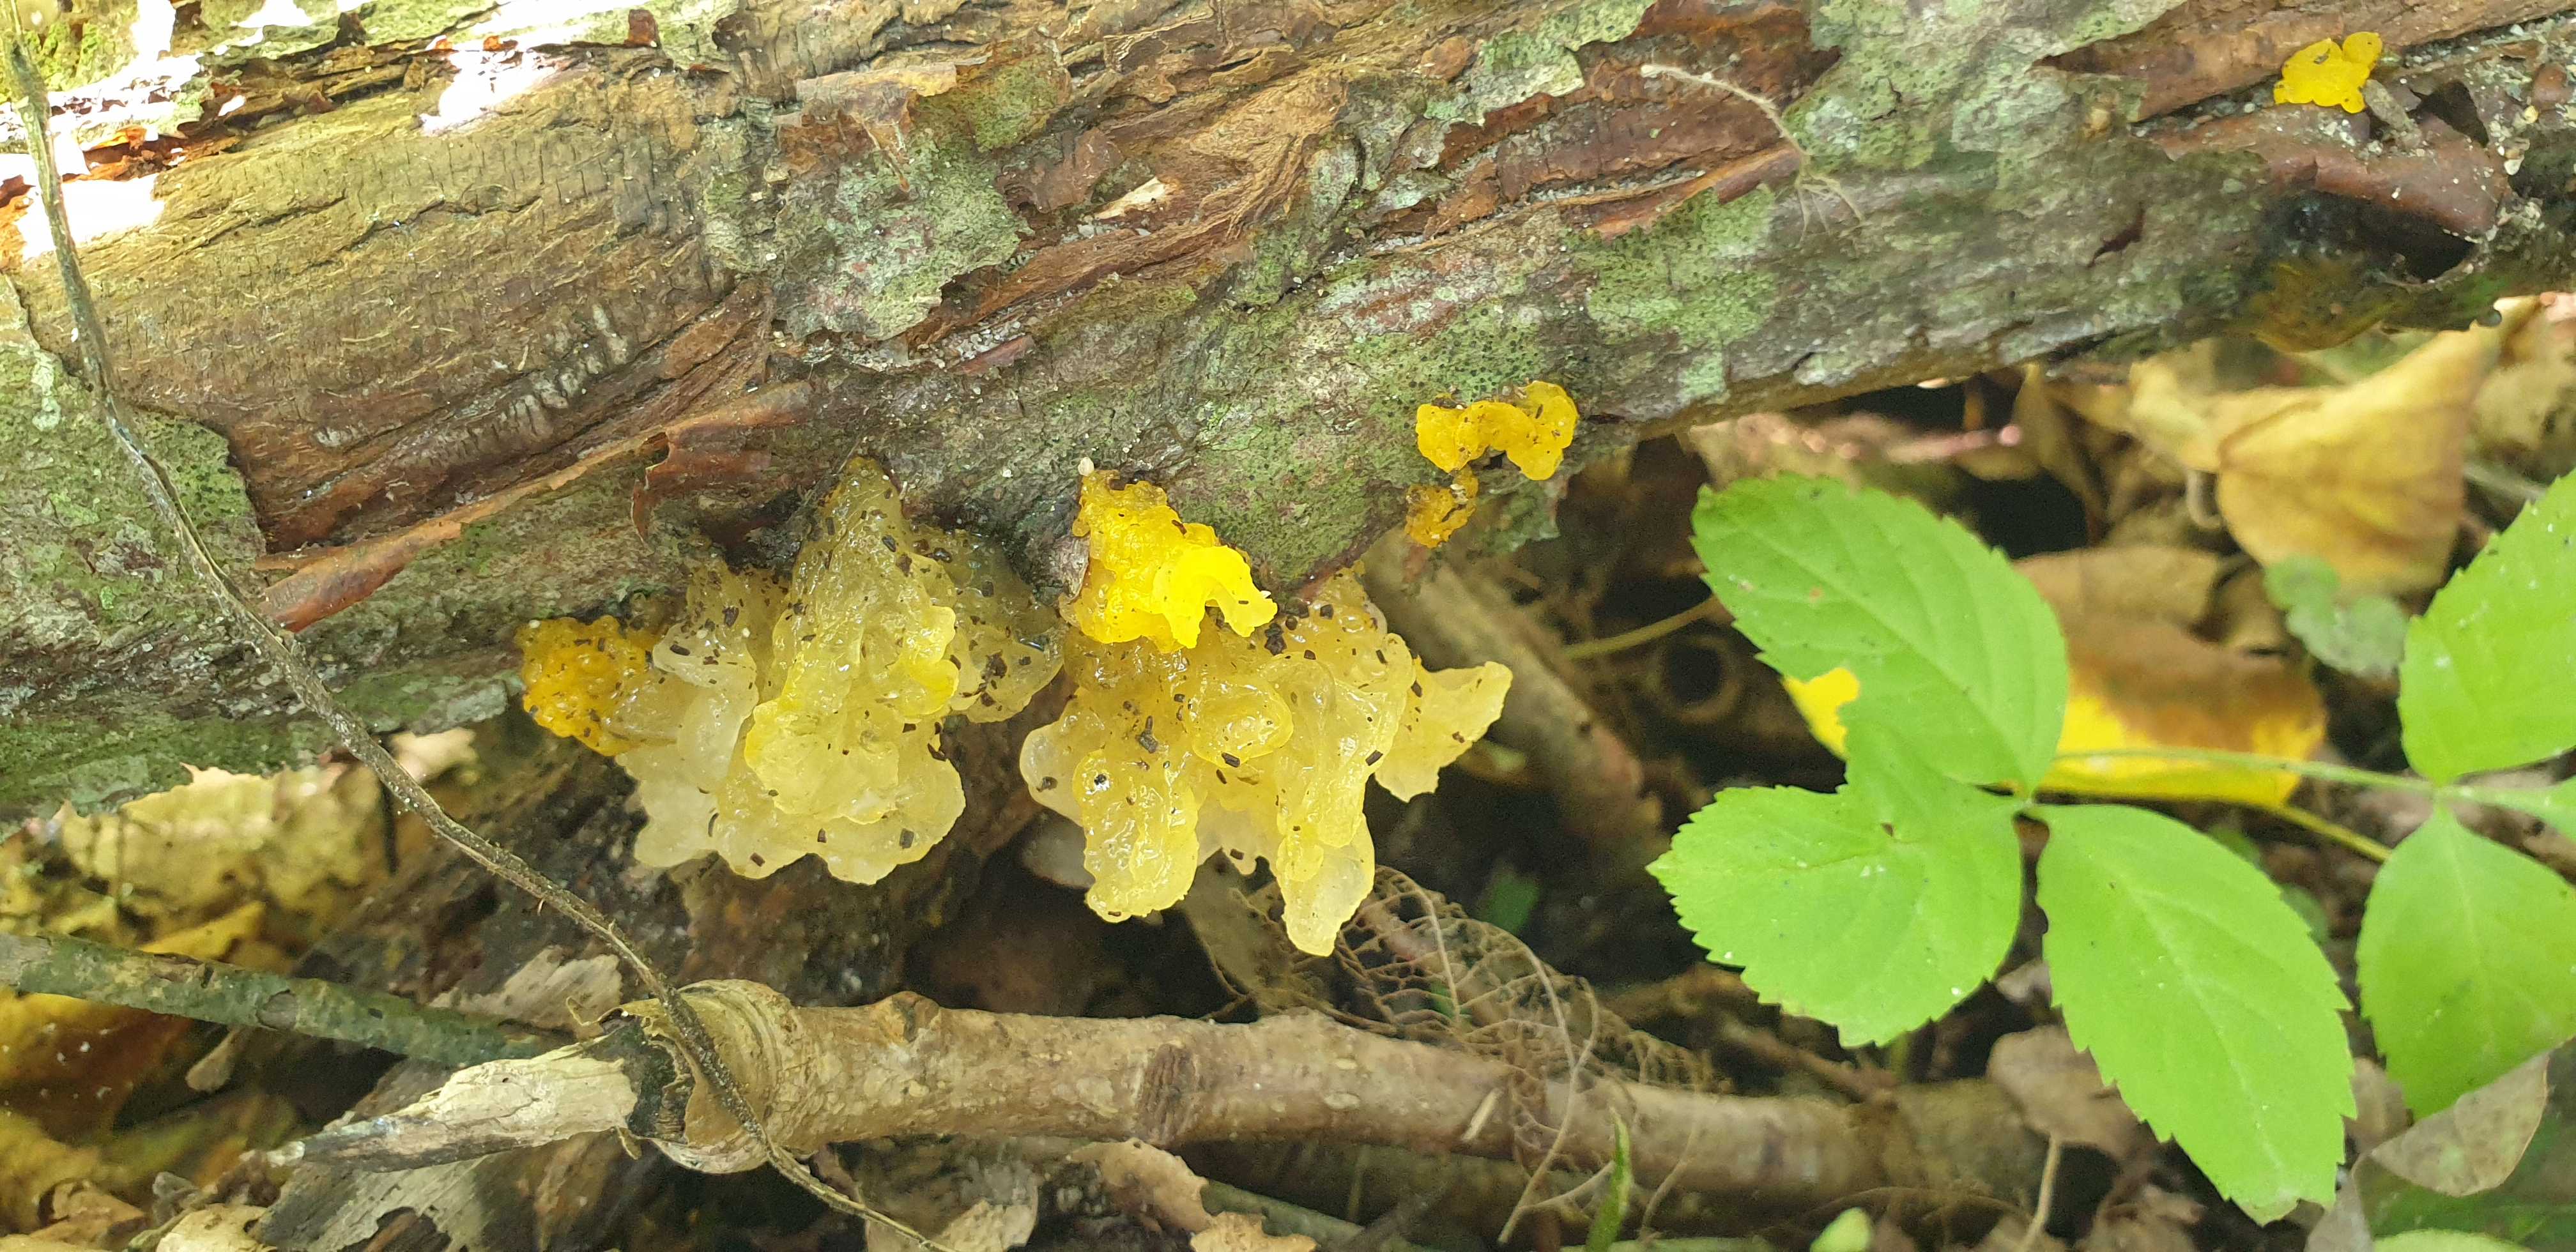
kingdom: Fungi
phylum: Basidiomycota
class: Tremellomycetes
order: Tremellales
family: Tremellaceae
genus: Tremella
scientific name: Tremella mesenterica
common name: gul bævresvamp
